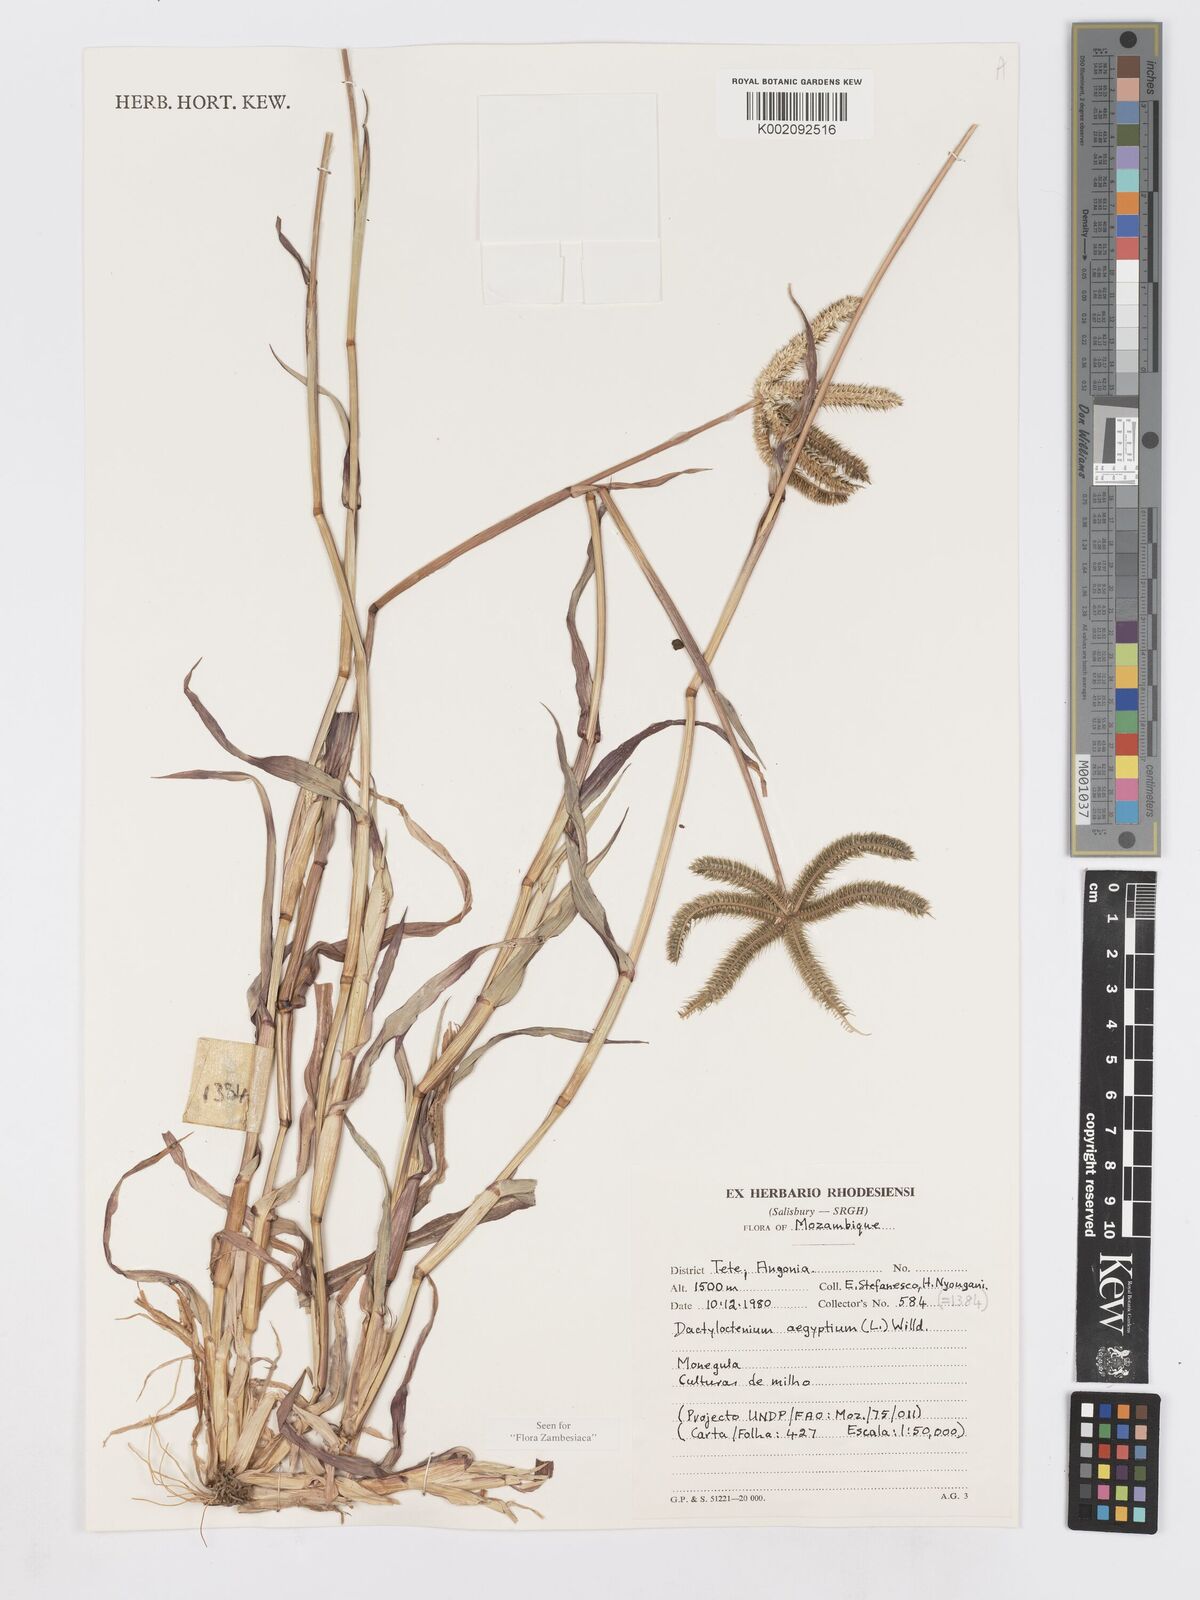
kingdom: Plantae
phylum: Tracheophyta
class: Liliopsida
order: Poales
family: Poaceae
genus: Dactyloctenium
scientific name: Dactyloctenium aegyptium
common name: Egyptian grass
